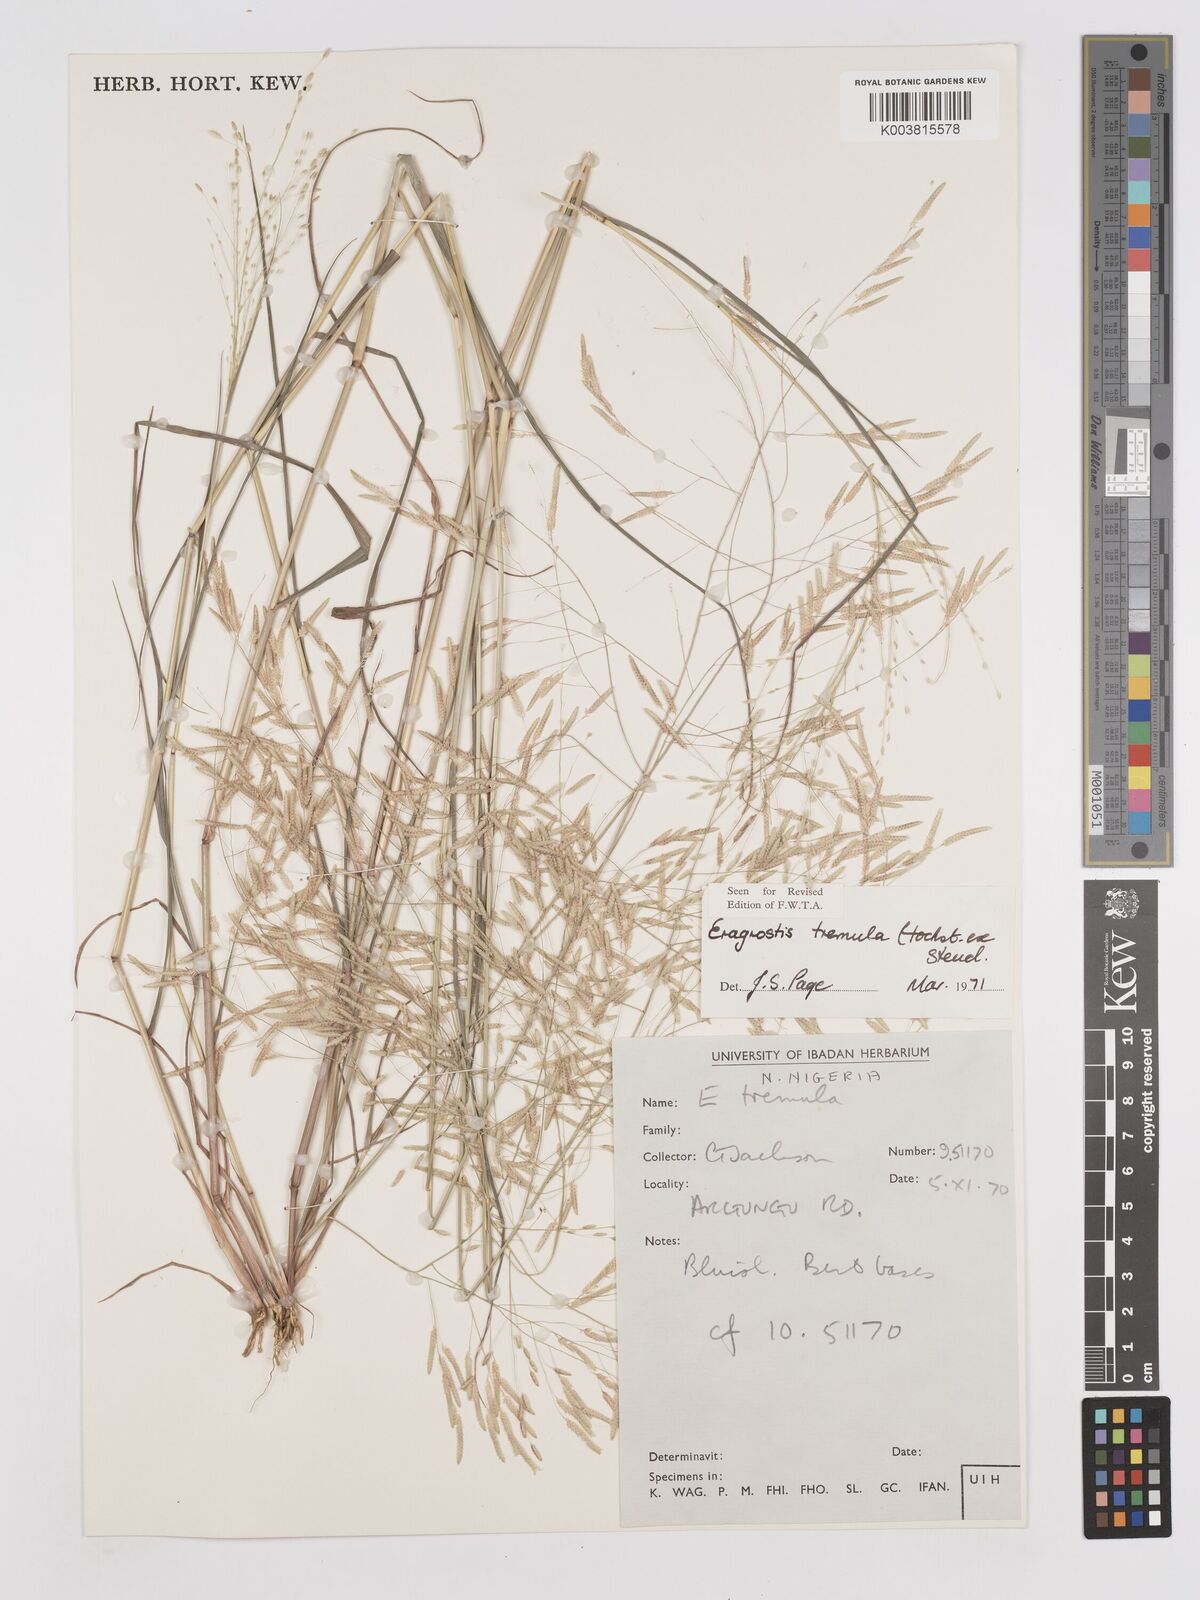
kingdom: Plantae
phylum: Tracheophyta
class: Liliopsida
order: Poales
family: Poaceae
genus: Eragrostis
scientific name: Eragrostis tremula
